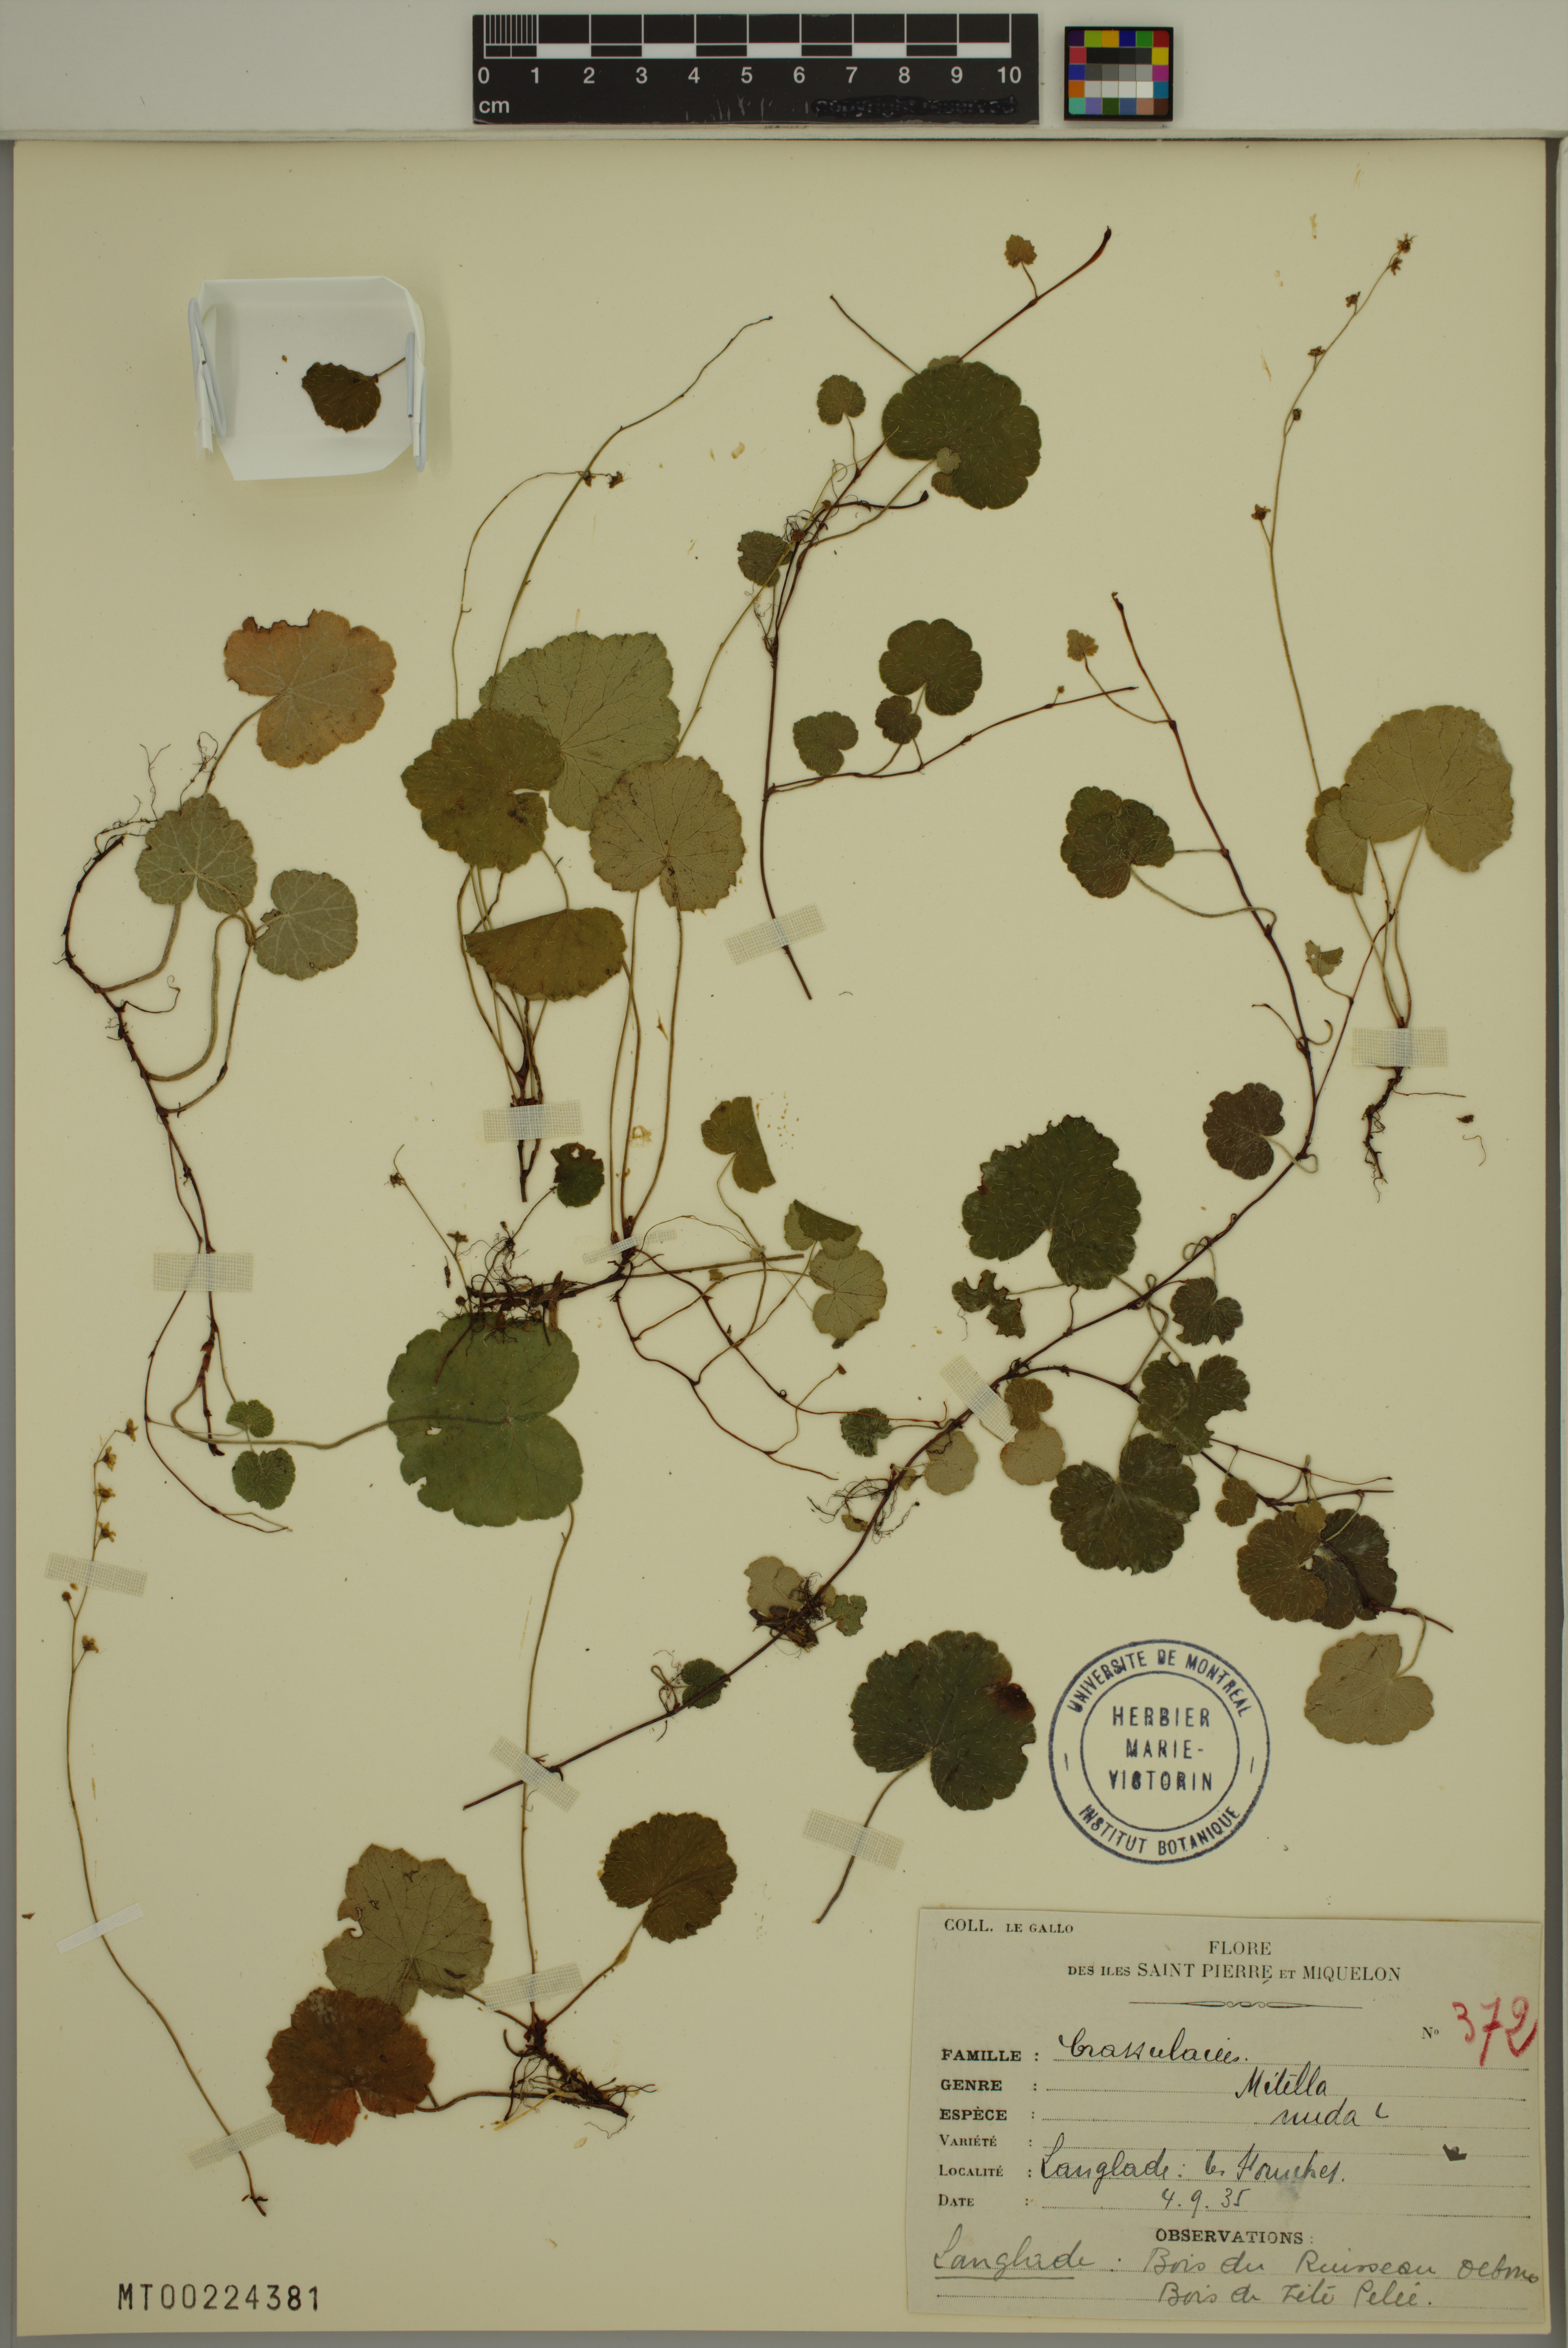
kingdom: Plantae
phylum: Tracheophyta
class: Magnoliopsida
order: Saxifragales
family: Saxifragaceae
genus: Mitella
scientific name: Mitella nuda
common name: Bare-stemmed bishop's-cap
